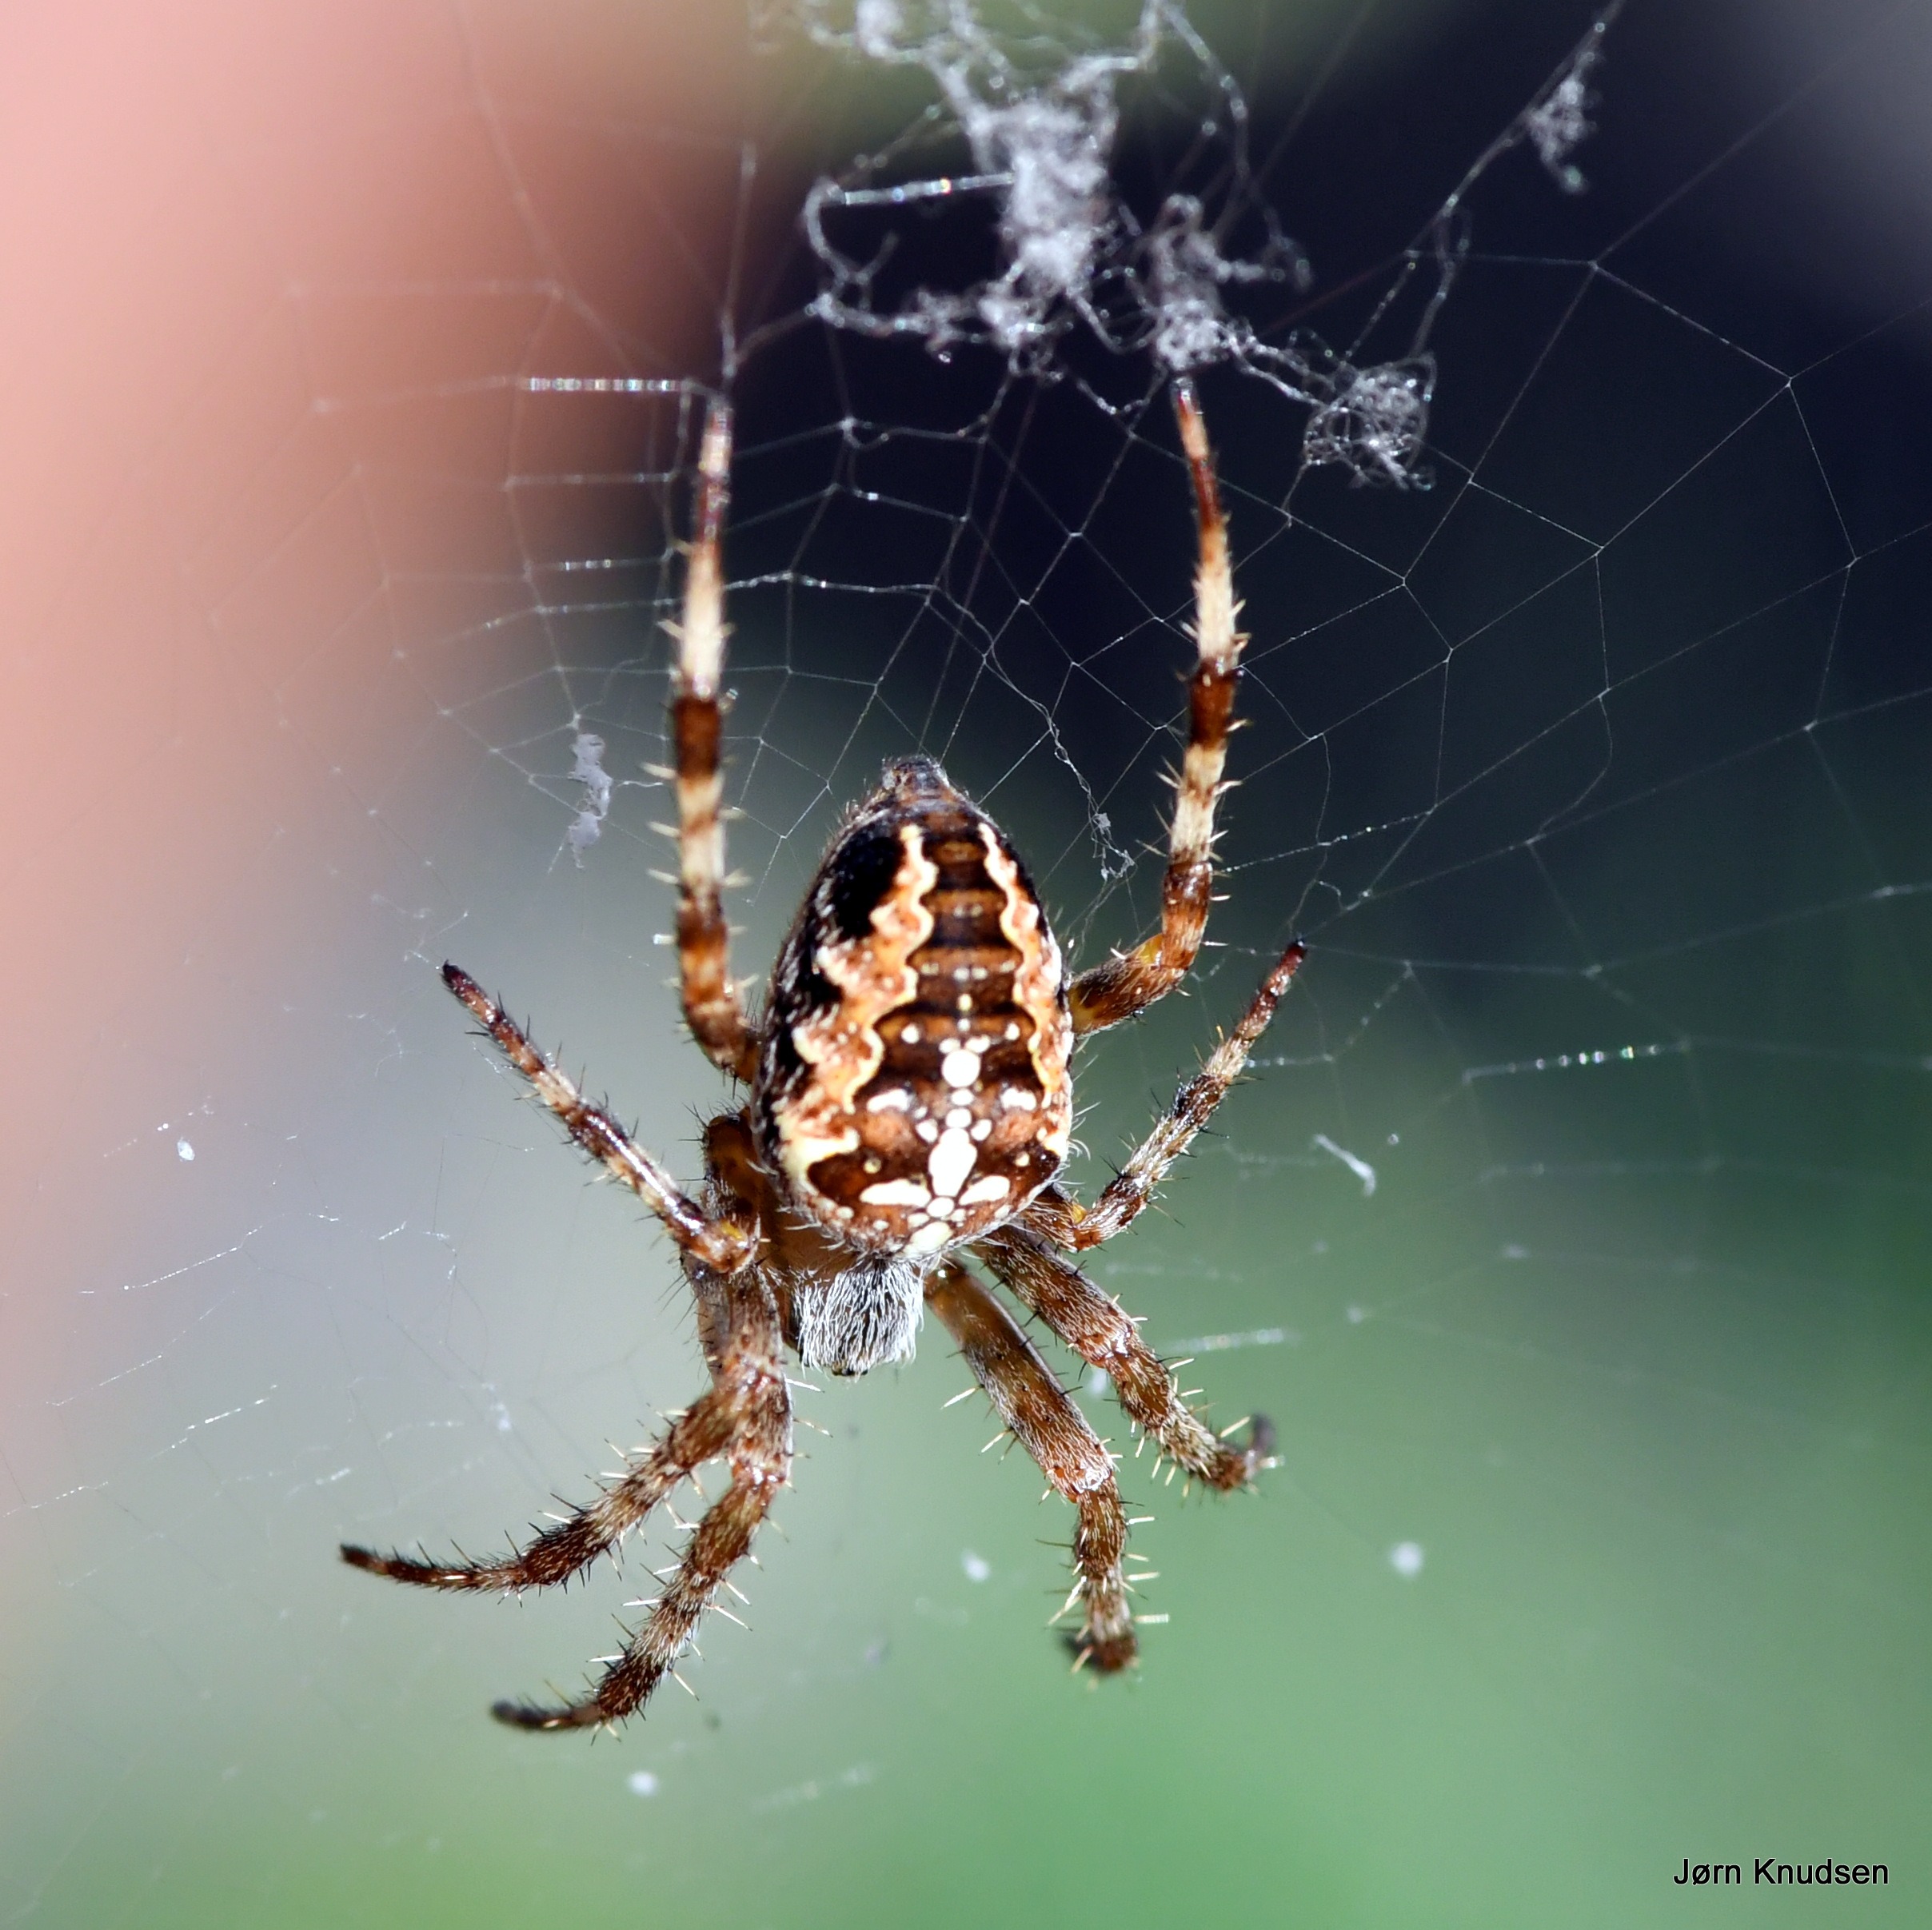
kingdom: Animalia
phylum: Arthropoda
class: Arachnida
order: Araneae
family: Araneidae
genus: Araneus
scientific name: Araneus diadematus
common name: Korsedderkop
